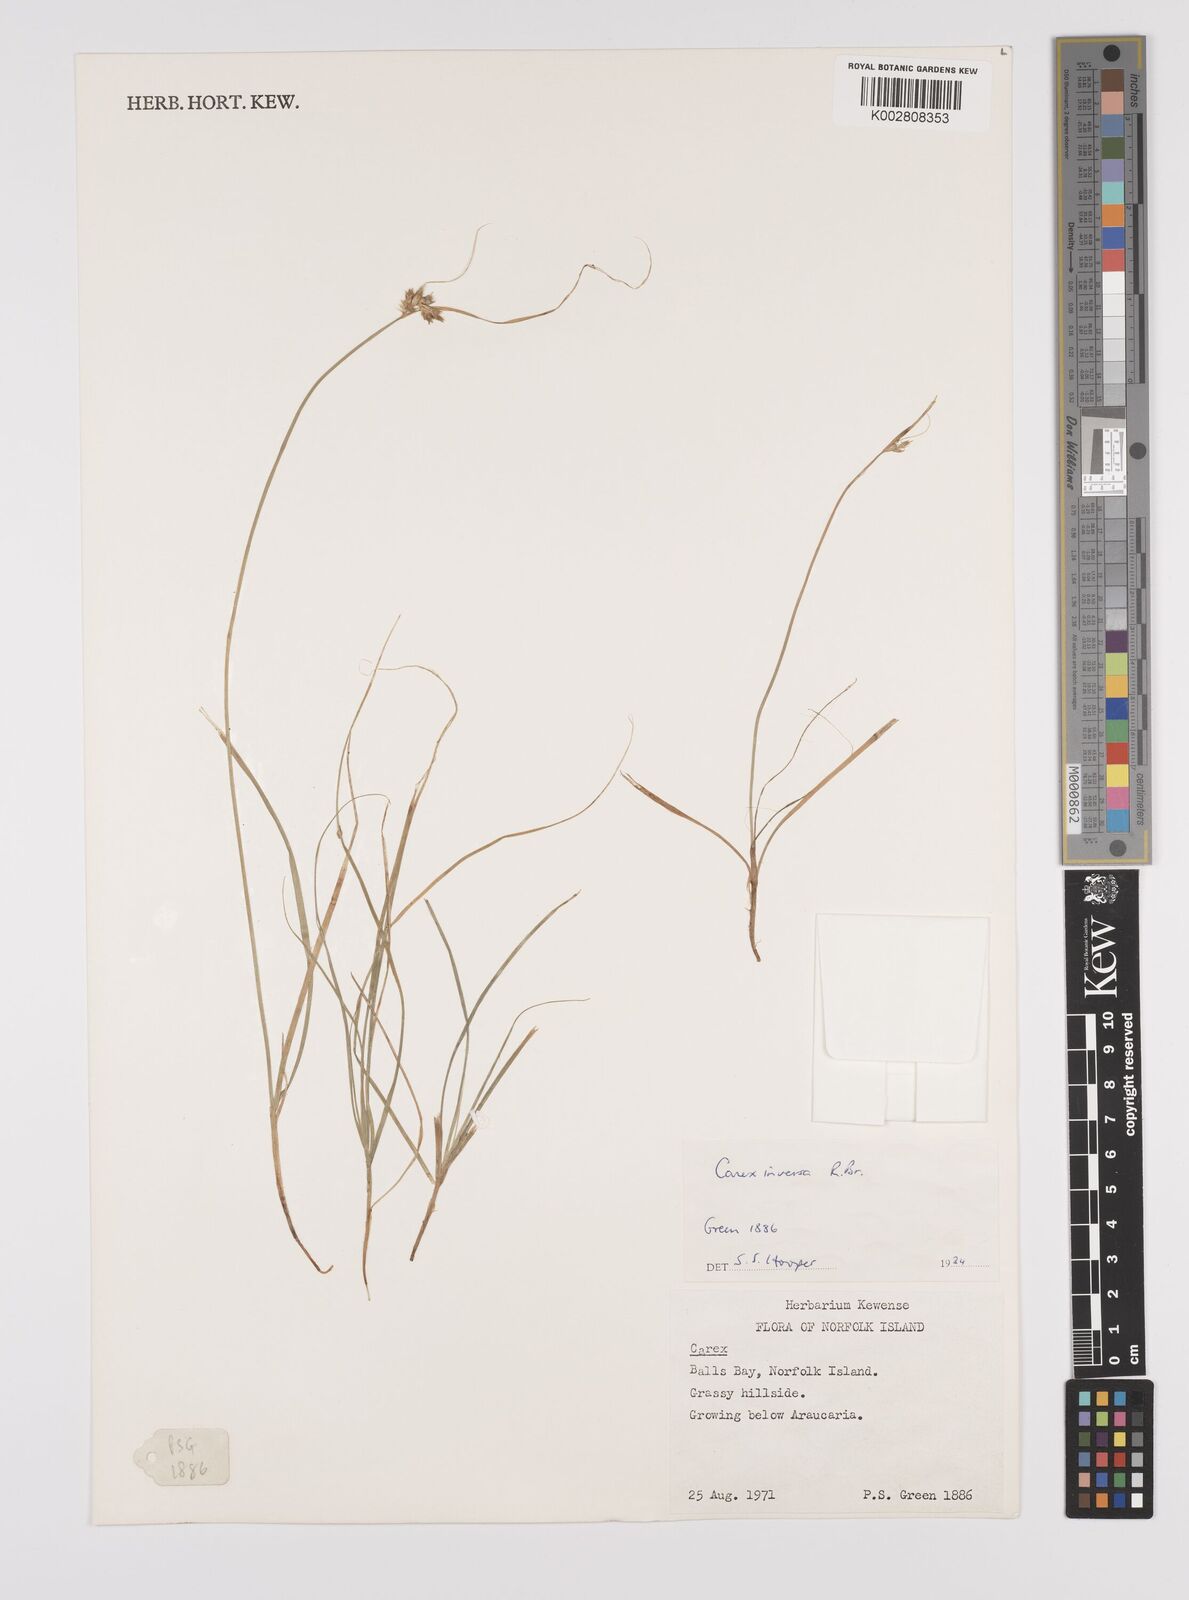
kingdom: Plantae
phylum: Tracheophyta
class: Liliopsida
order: Poales
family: Cyperaceae
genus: Carex
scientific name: Carex inversa
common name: Knob sedge
